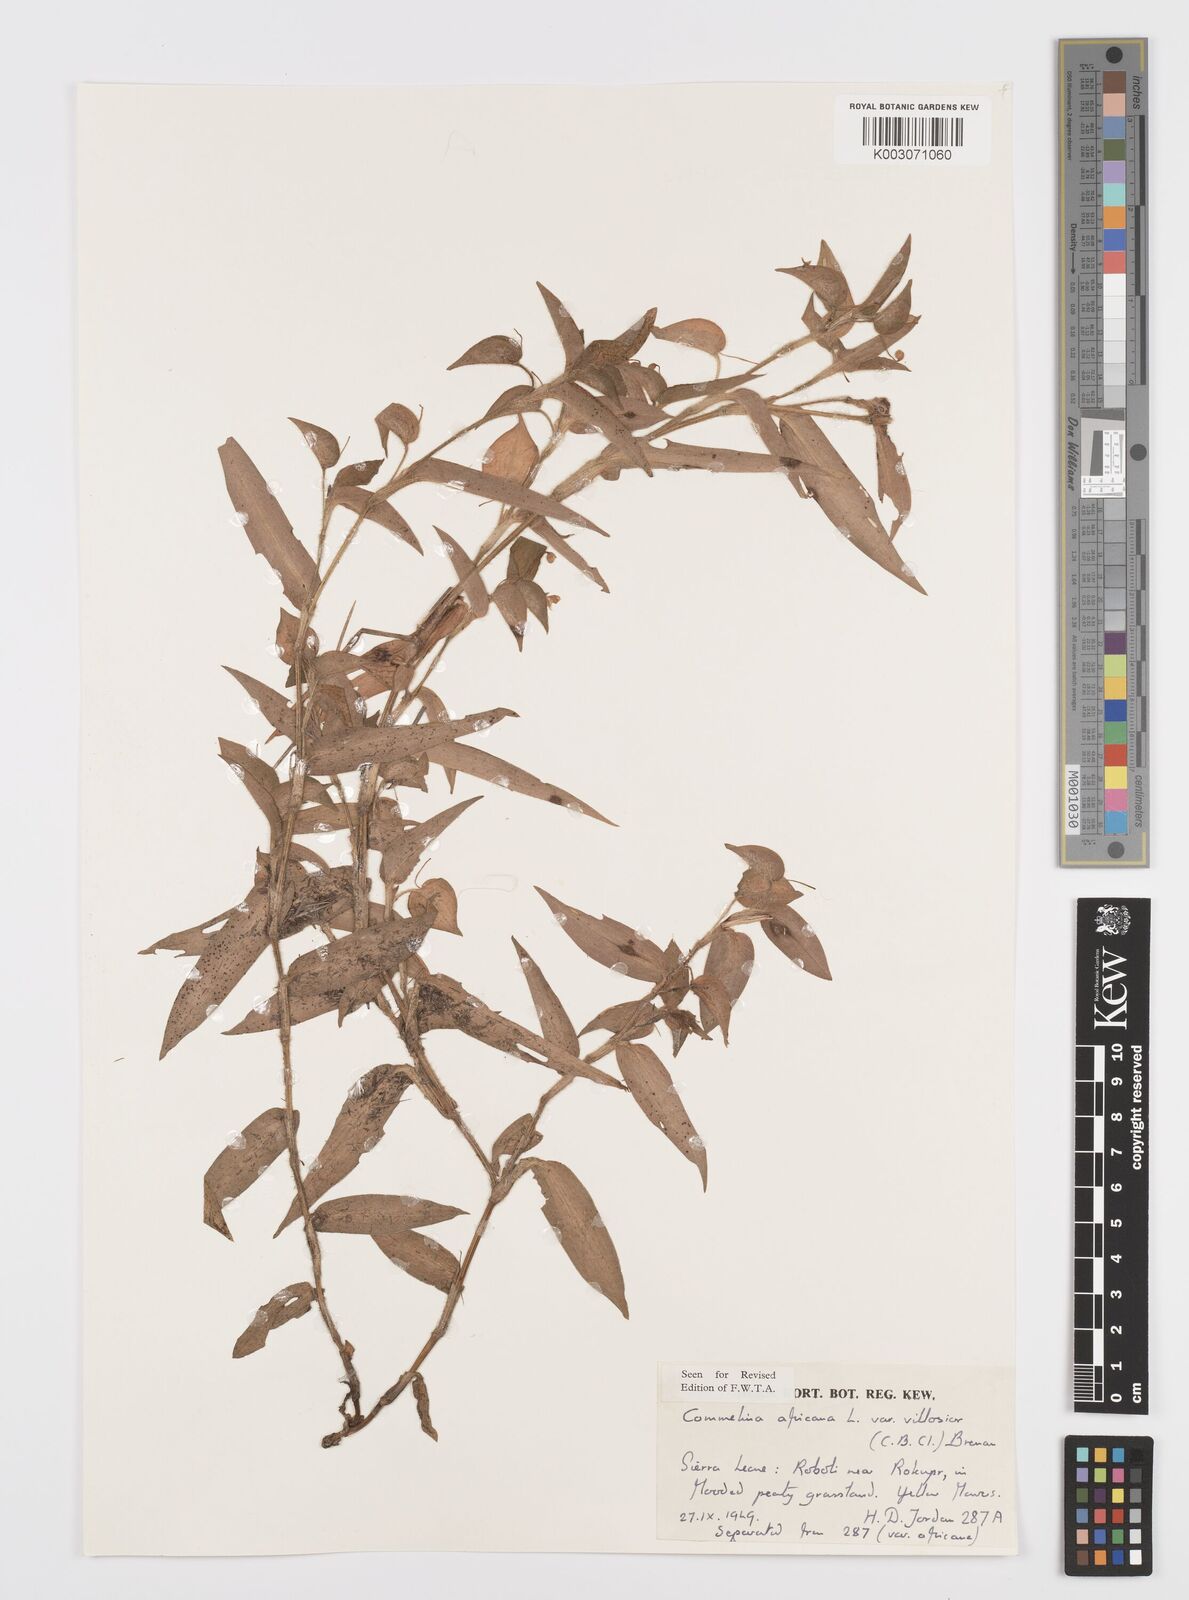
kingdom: Plantae
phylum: Tracheophyta
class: Liliopsida
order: Commelinales
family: Commelinaceae
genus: Commelina
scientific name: Commelina africana
